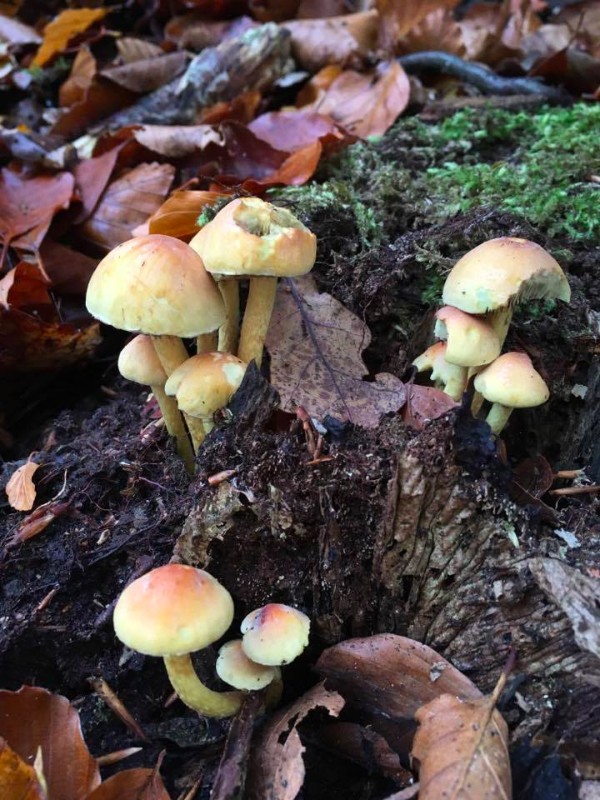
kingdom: Fungi
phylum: Basidiomycota
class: Agaricomycetes
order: Agaricales
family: Strophariaceae
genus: Hypholoma
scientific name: Hypholoma fasciculare
